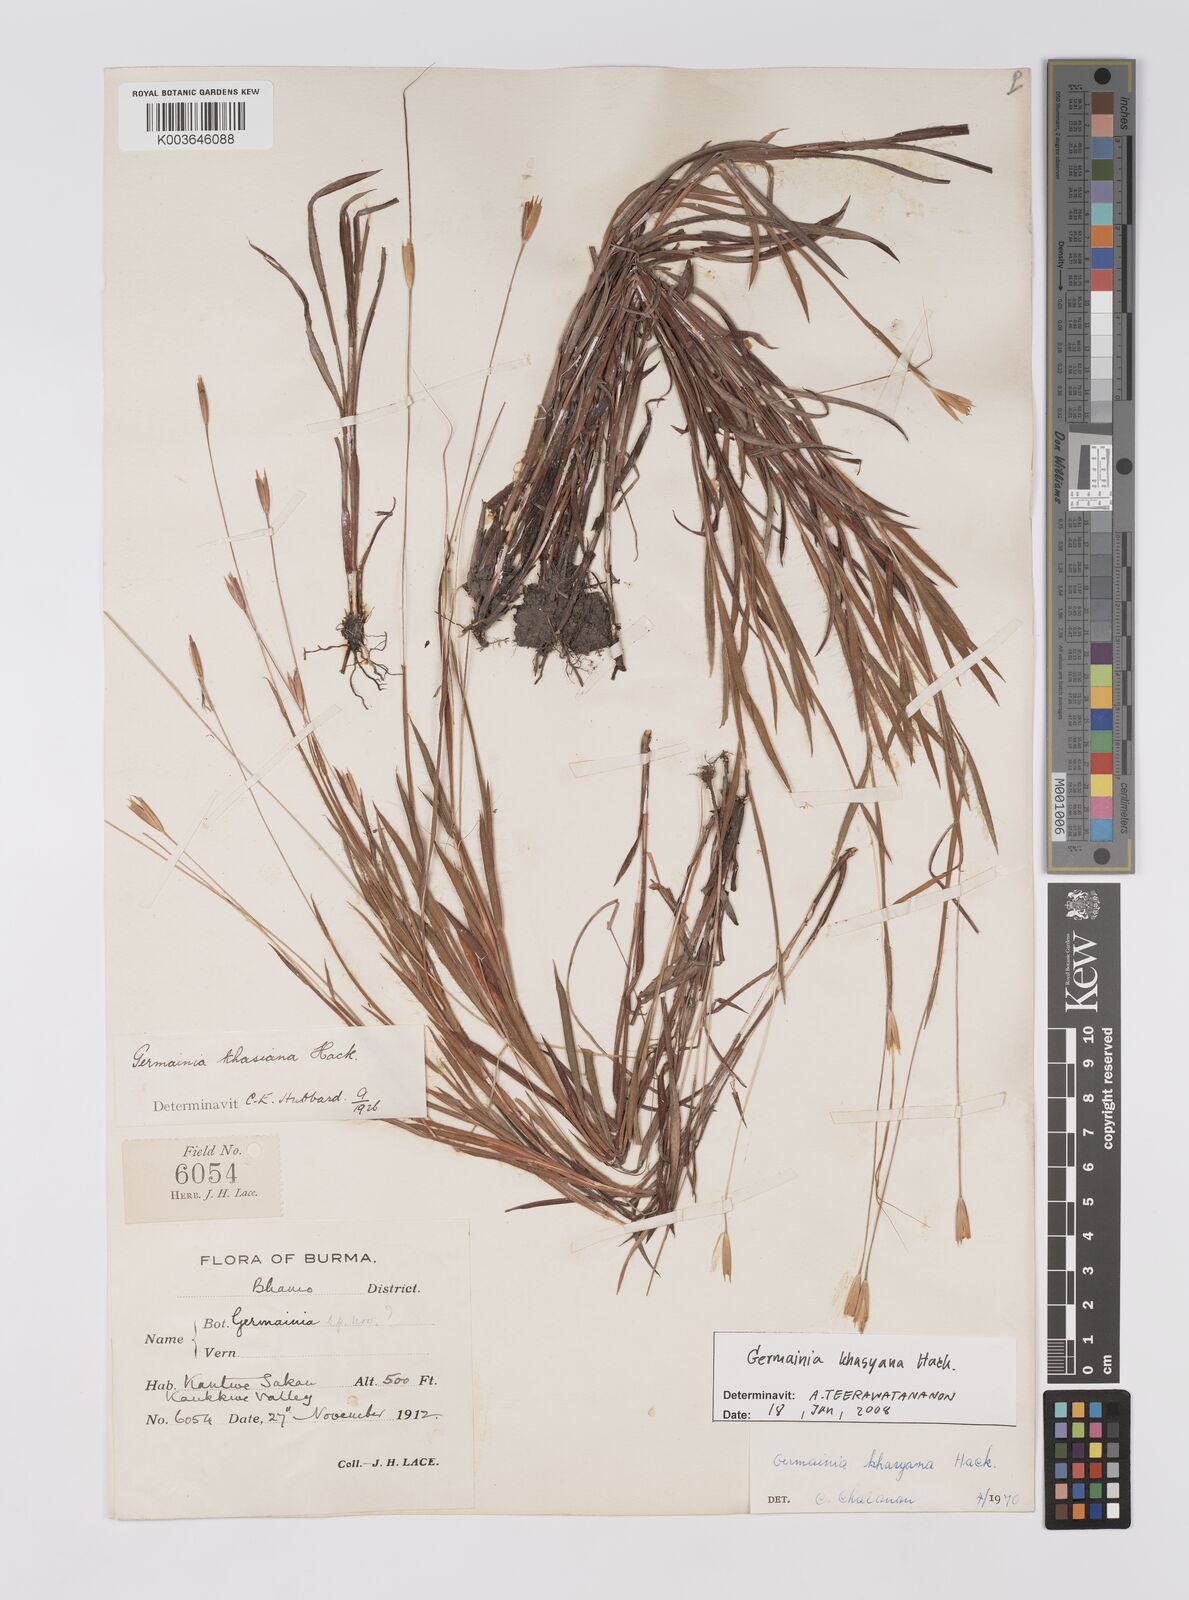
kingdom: Plantae
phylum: Tracheophyta
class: Liliopsida
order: Poales
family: Poaceae
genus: Germainia
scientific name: Germainia khasyana
